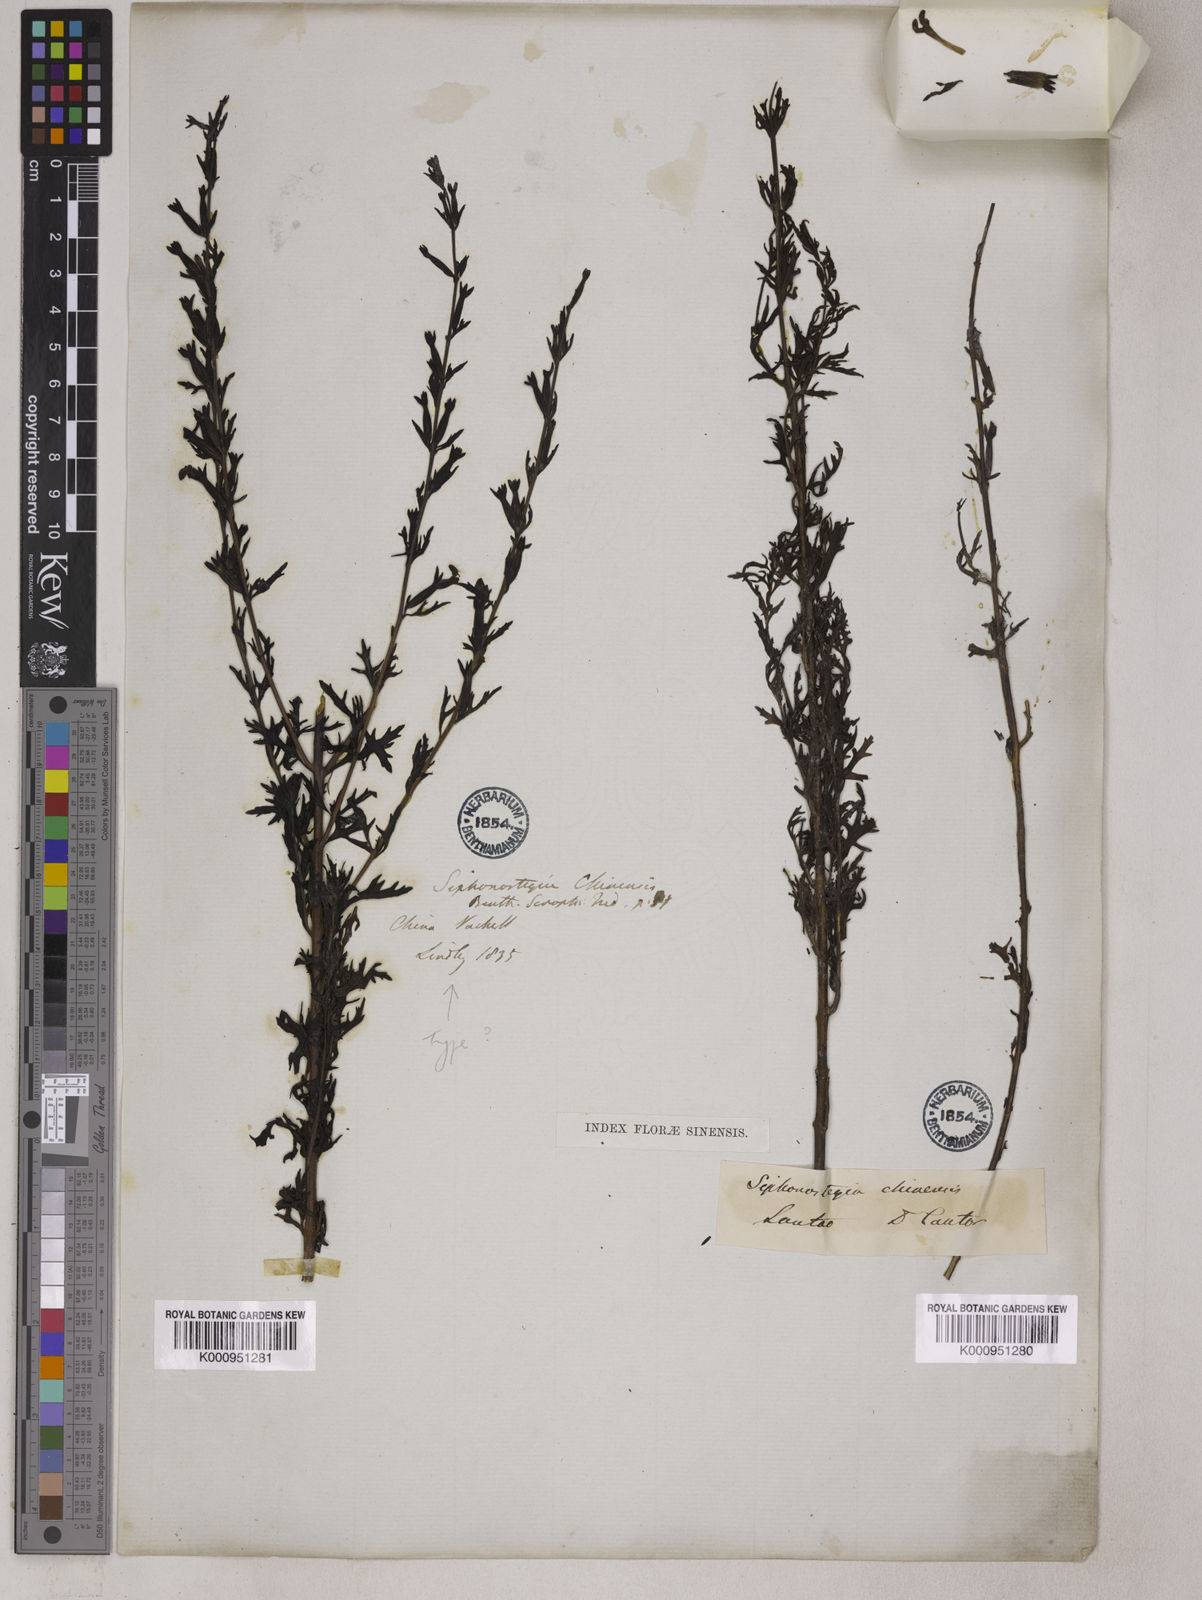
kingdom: Plantae
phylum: Tracheophyta
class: Magnoliopsida
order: Lamiales
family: Orobanchaceae
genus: Siphonostegia
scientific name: Siphonostegia chinensis
